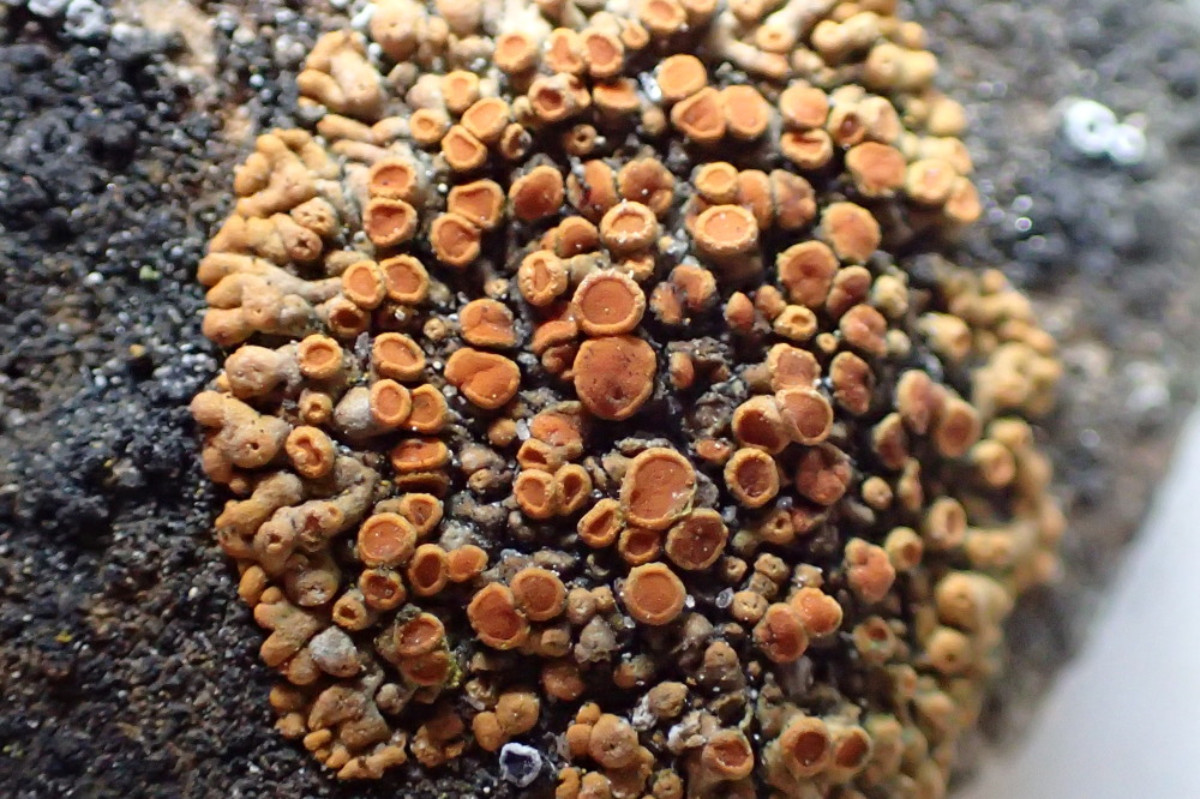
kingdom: Fungi
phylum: Ascomycota
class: Lecanoromycetes
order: Teloschistales
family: Teloschistaceae
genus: Calogaya
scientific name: Calogaya saxicola
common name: mur-orangelav
